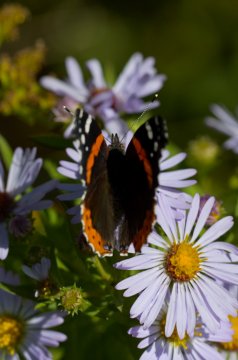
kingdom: Animalia
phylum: Arthropoda
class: Insecta
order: Lepidoptera
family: Nymphalidae
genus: Vanessa
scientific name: Vanessa atalanta
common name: Red Admiral
